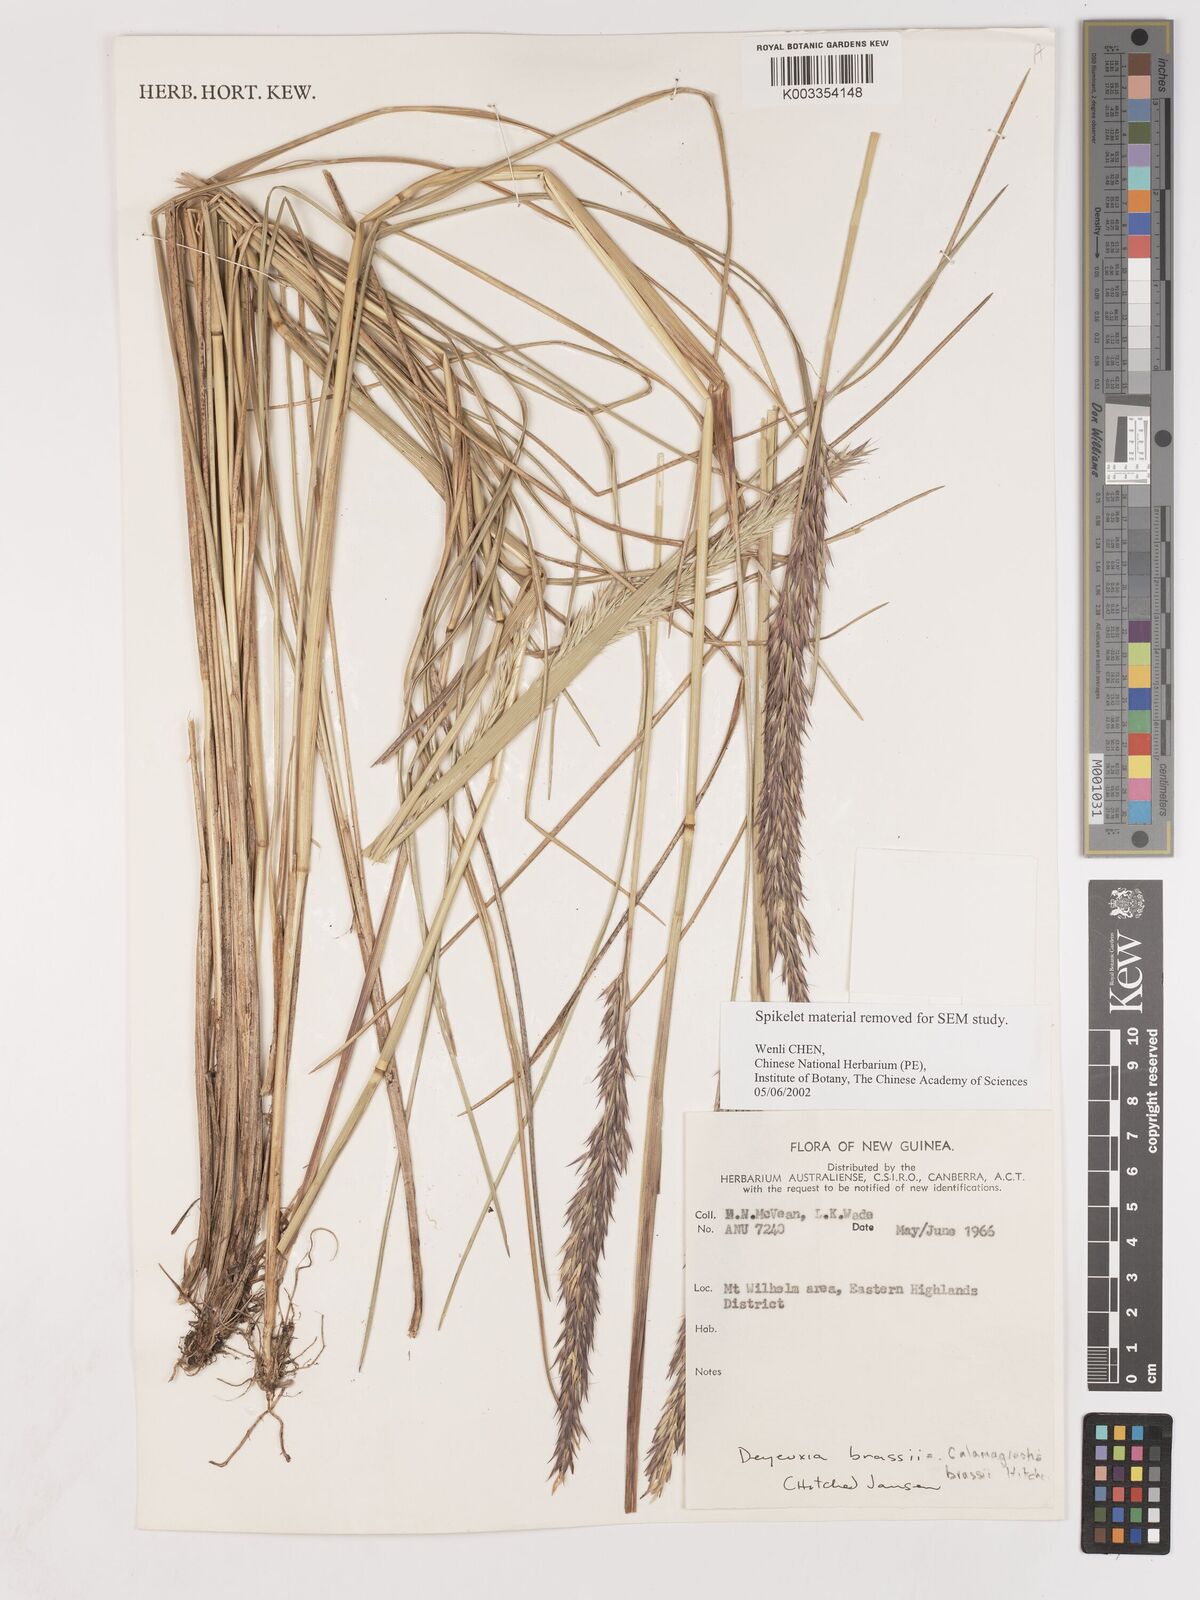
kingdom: Plantae
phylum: Tracheophyta
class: Liliopsida
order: Poales
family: Poaceae
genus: Calamagrostis
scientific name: Calamagrostis brassii
